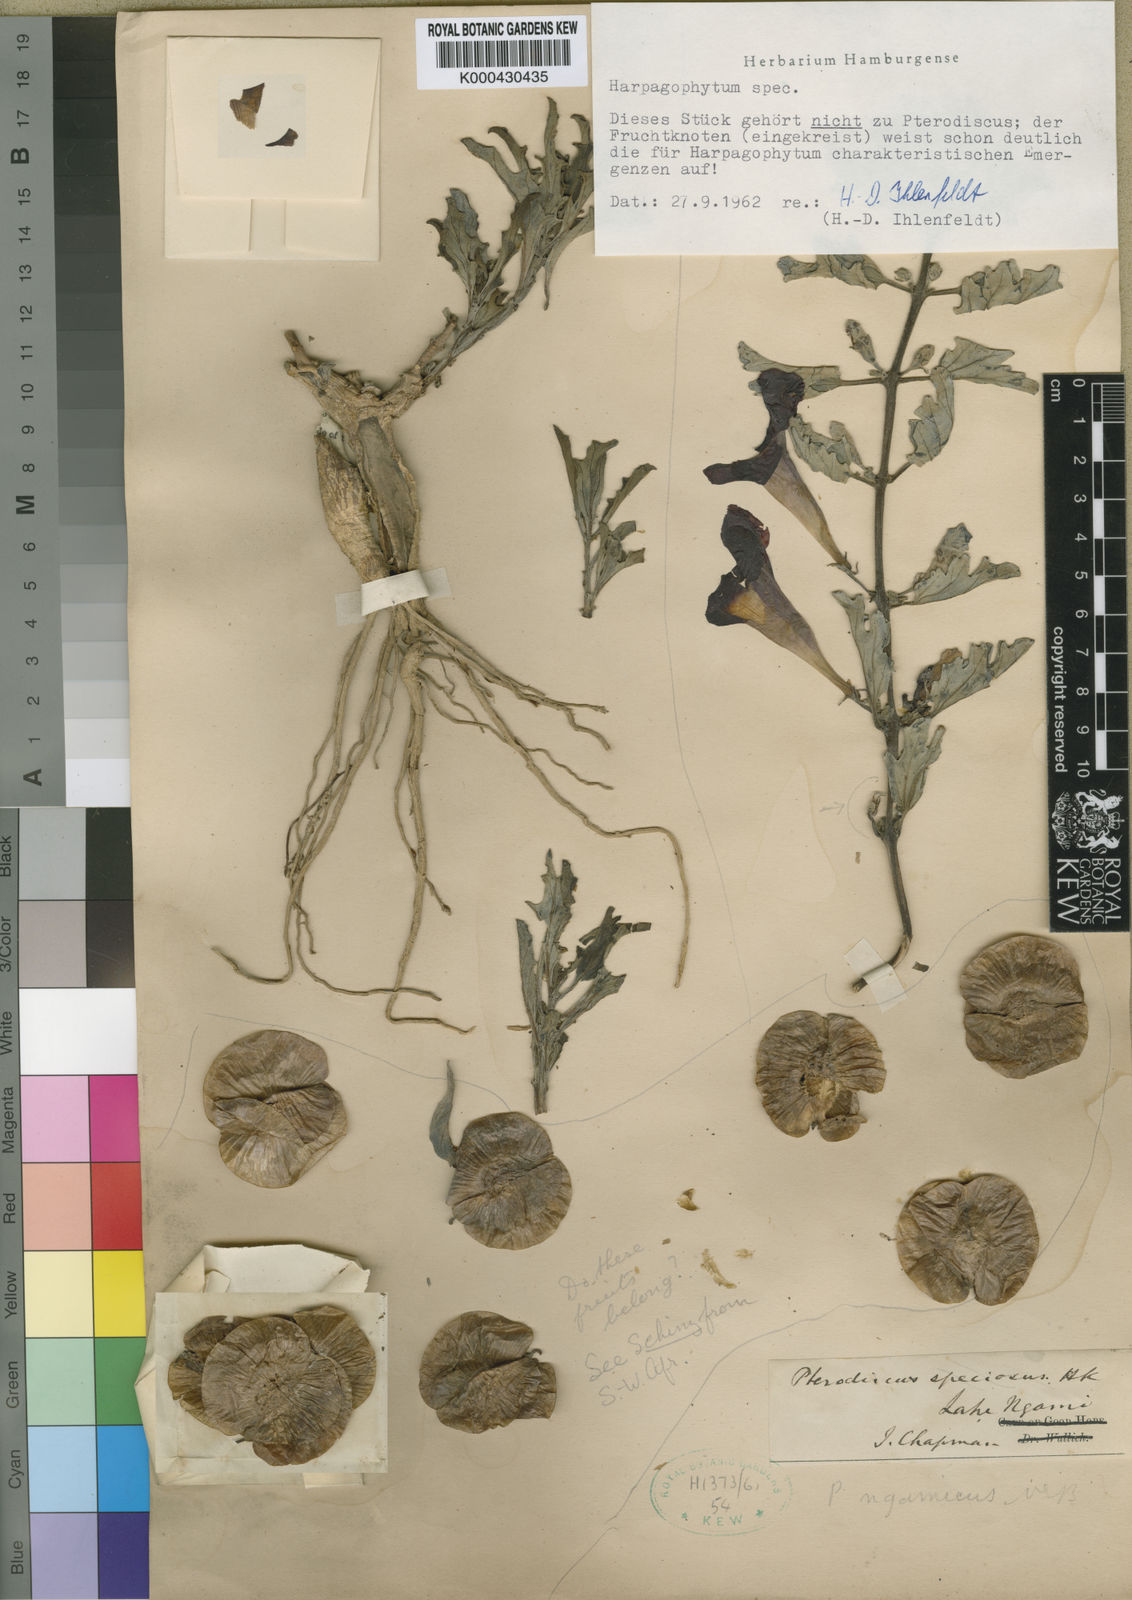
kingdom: Plantae
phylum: Tracheophyta
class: Magnoliopsida
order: Lamiales
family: Pedaliaceae
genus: Pterodiscus
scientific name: Pterodiscus ngamicus
